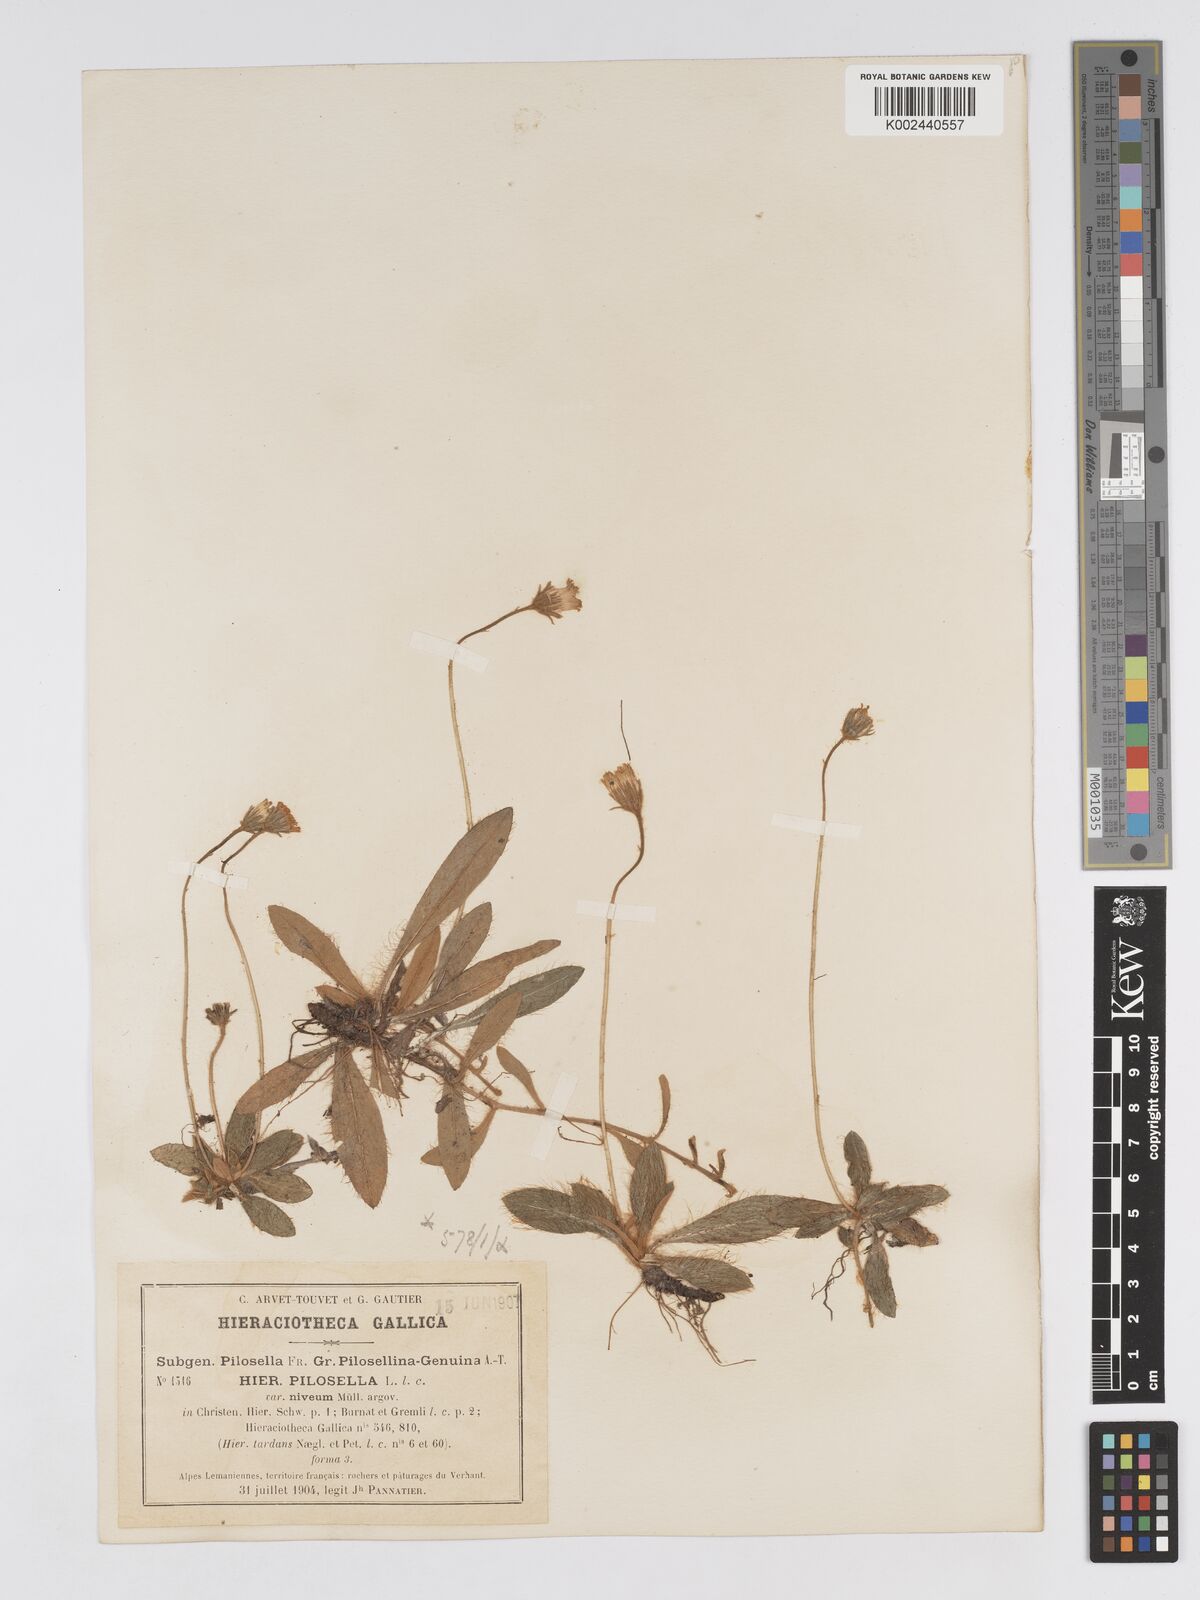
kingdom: Plantae
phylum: Tracheophyta
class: Magnoliopsida
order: Asterales
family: Asteraceae
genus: Pilosella
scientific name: Pilosella tardans
